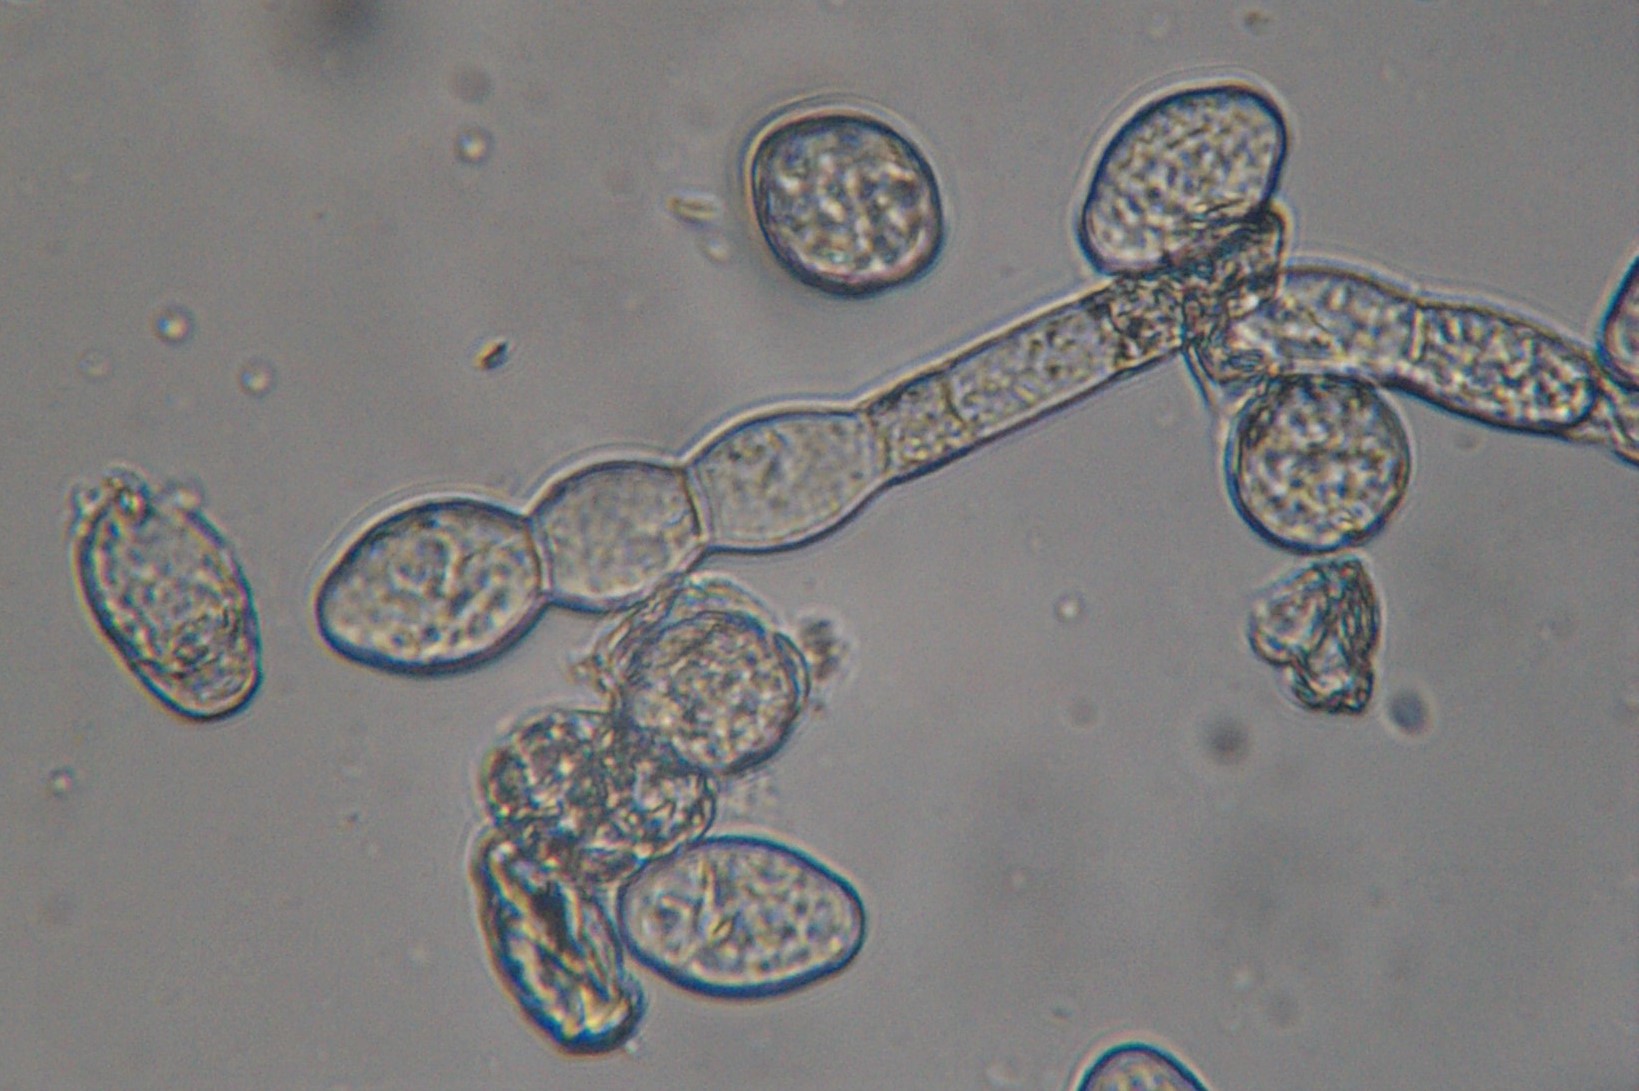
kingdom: Fungi
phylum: Ascomycota
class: Leotiomycetes
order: Helotiales
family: Erysiphaceae
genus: Podosphaera
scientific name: Podosphaera fugax
